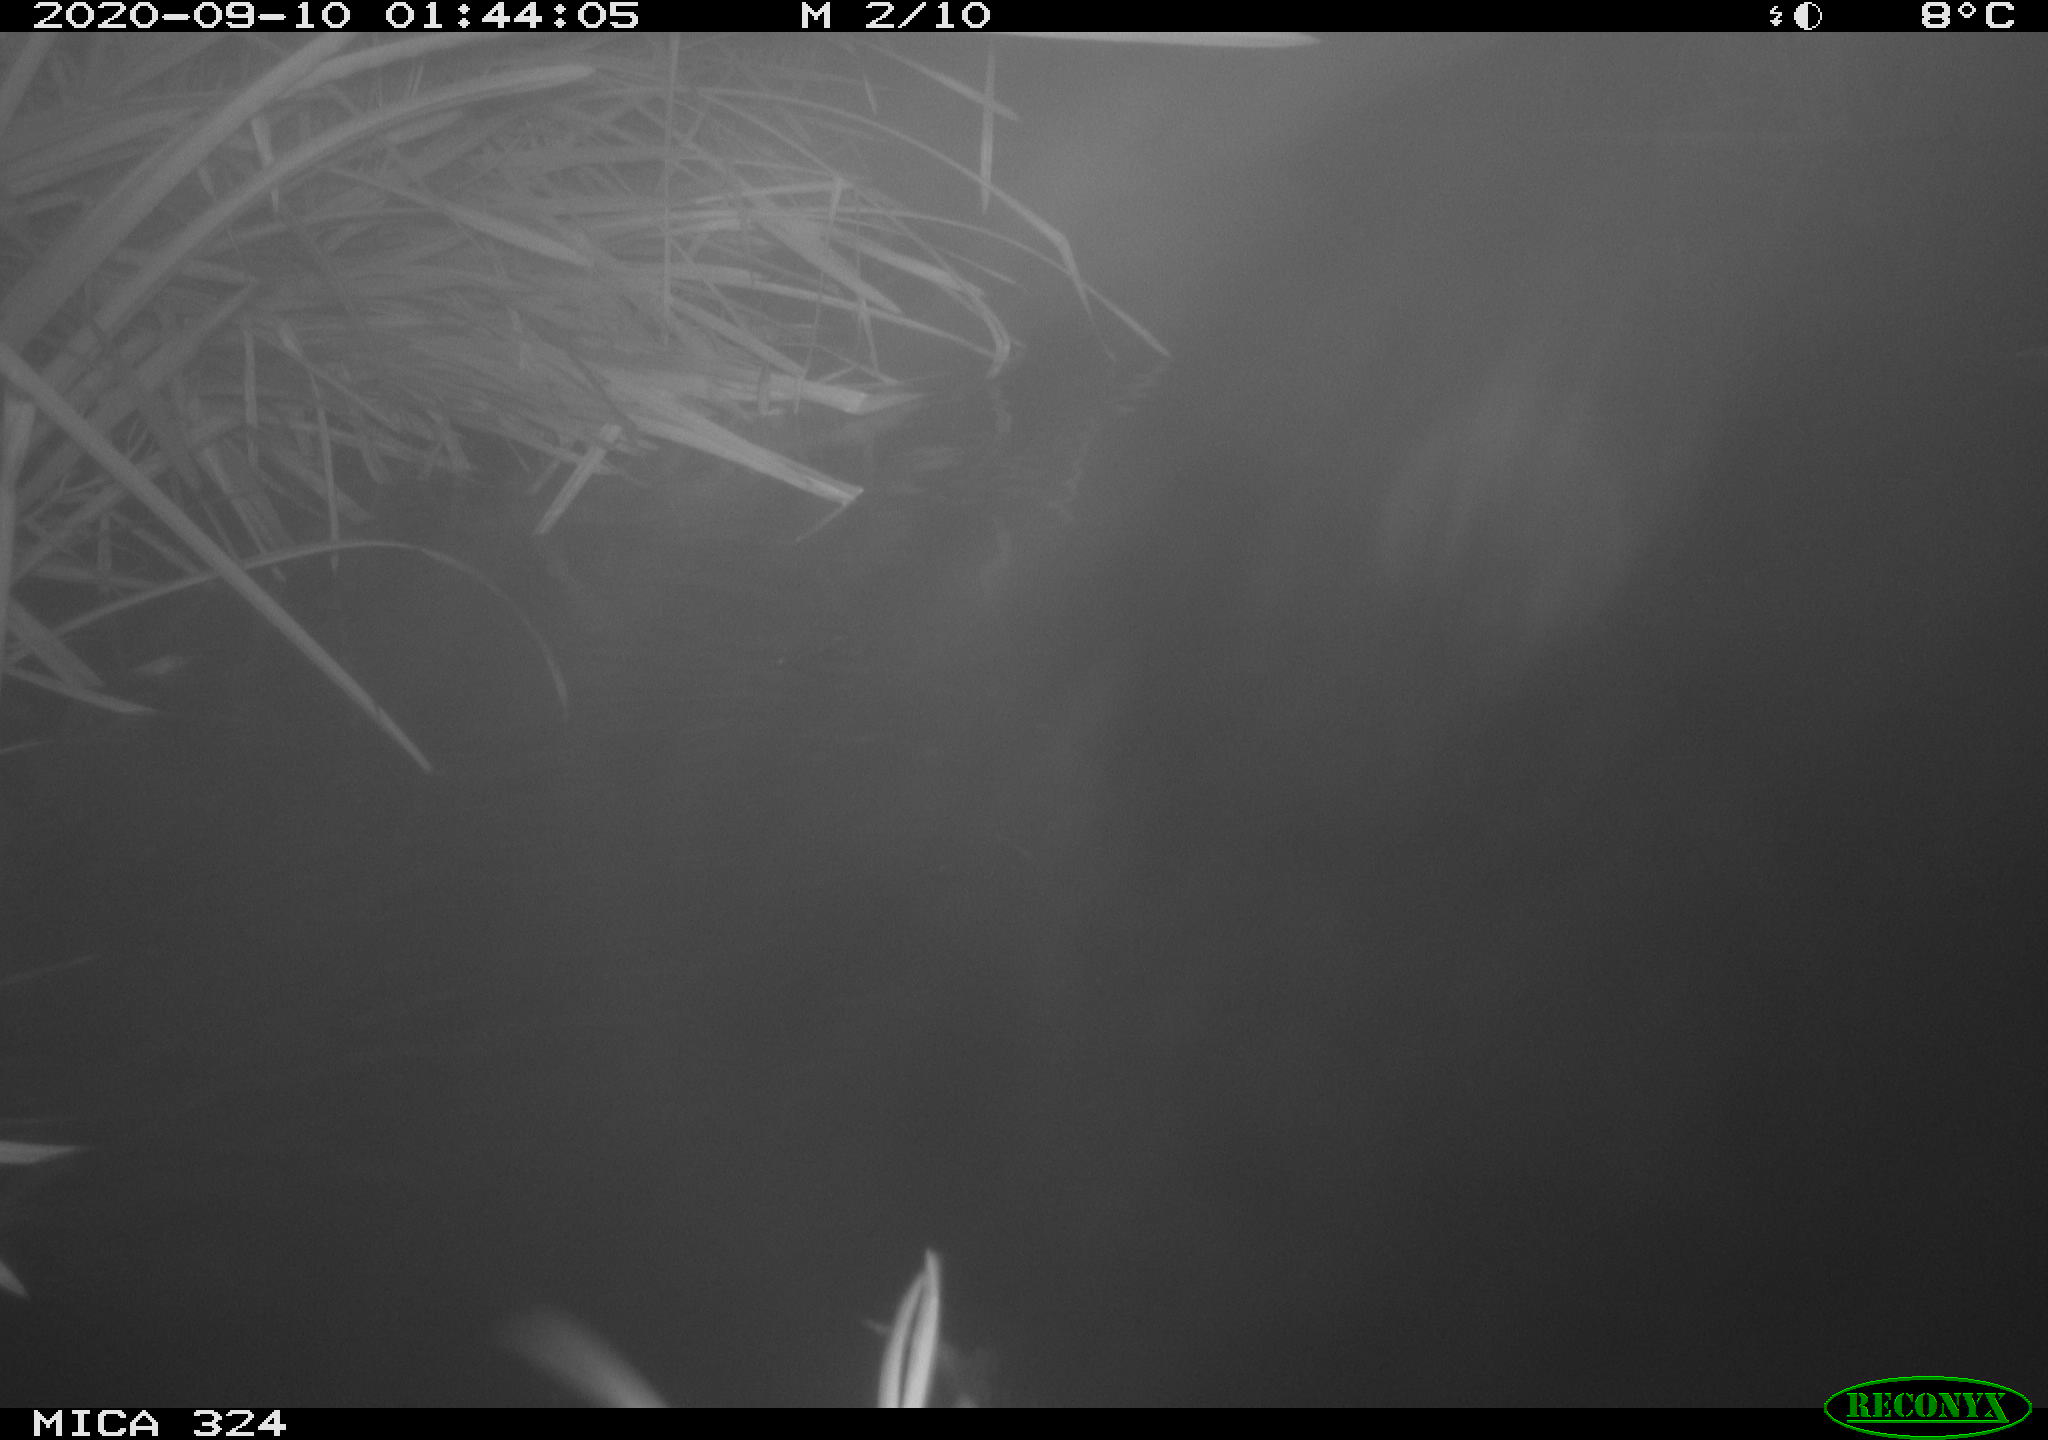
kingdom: Animalia
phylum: Chordata
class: Mammalia
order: Rodentia
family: Cricetidae
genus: Ondatra
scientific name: Ondatra zibethicus
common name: Muskrat
